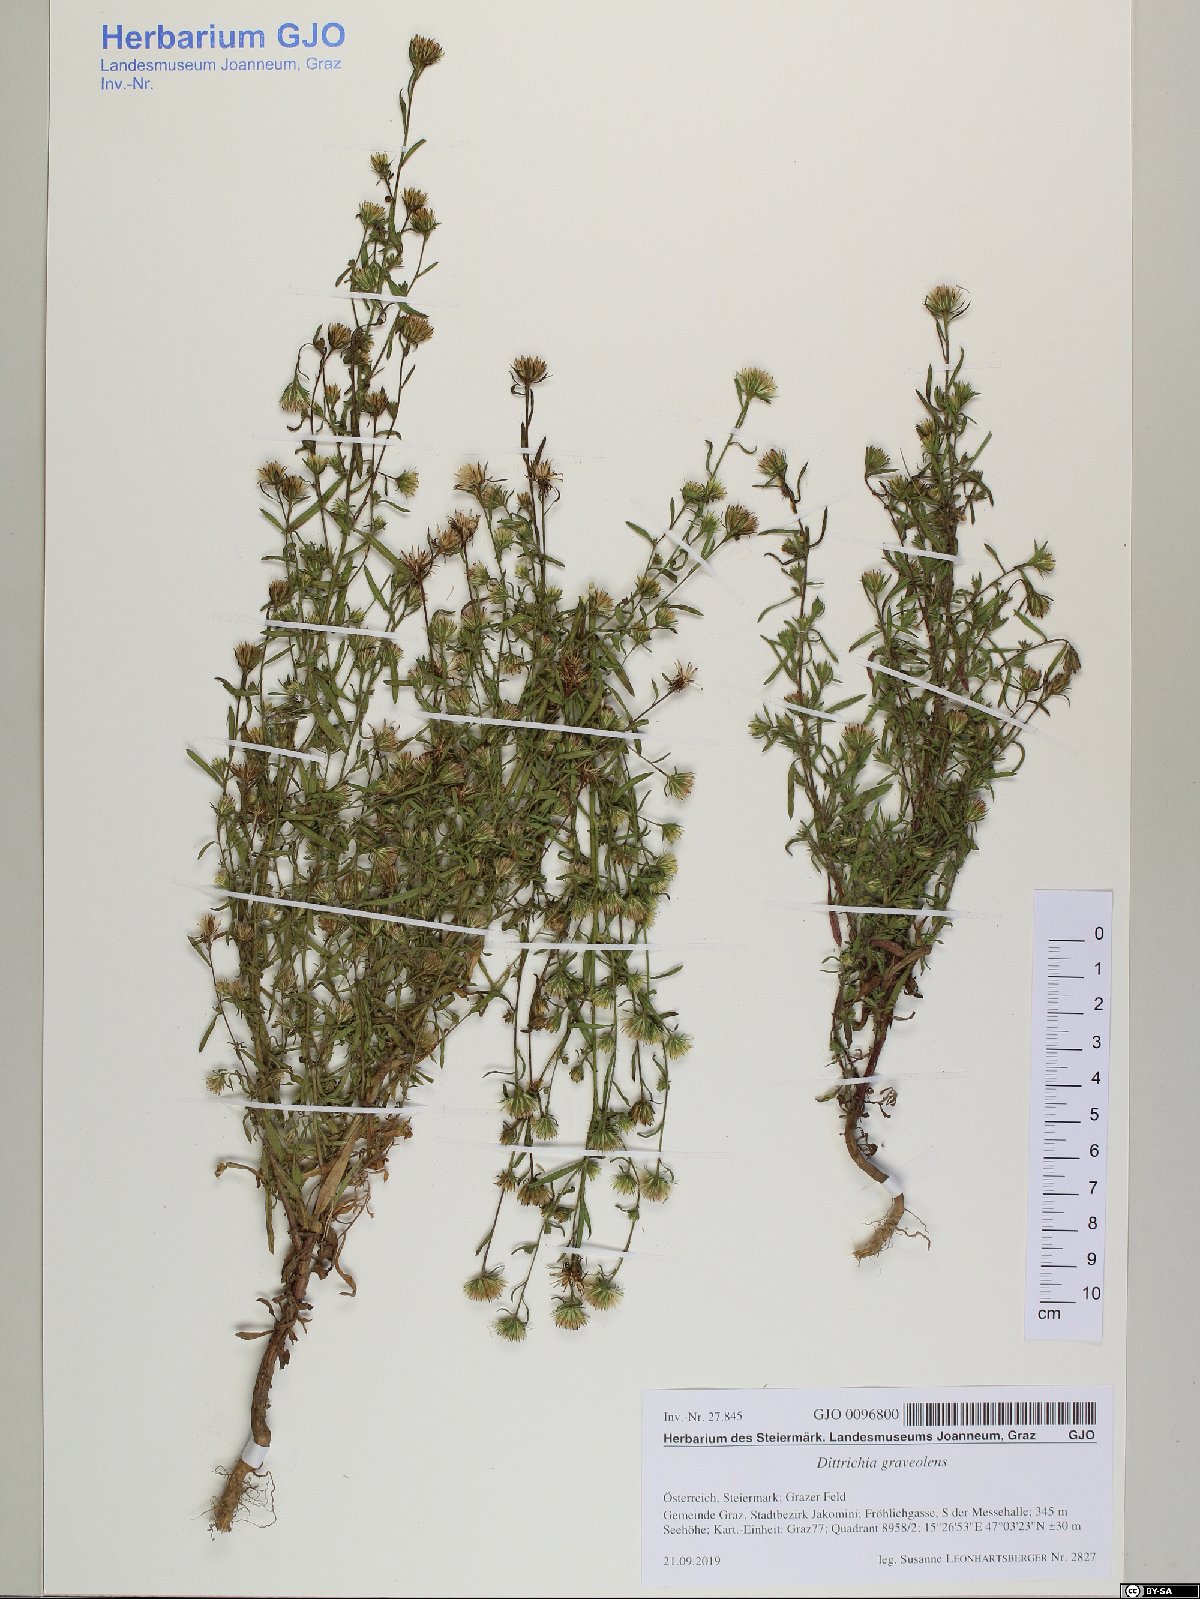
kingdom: Plantae
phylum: Tracheophyta
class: Magnoliopsida
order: Asterales
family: Asteraceae
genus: Dittrichia
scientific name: Dittrichia graveolens
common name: Stinking fleabane
